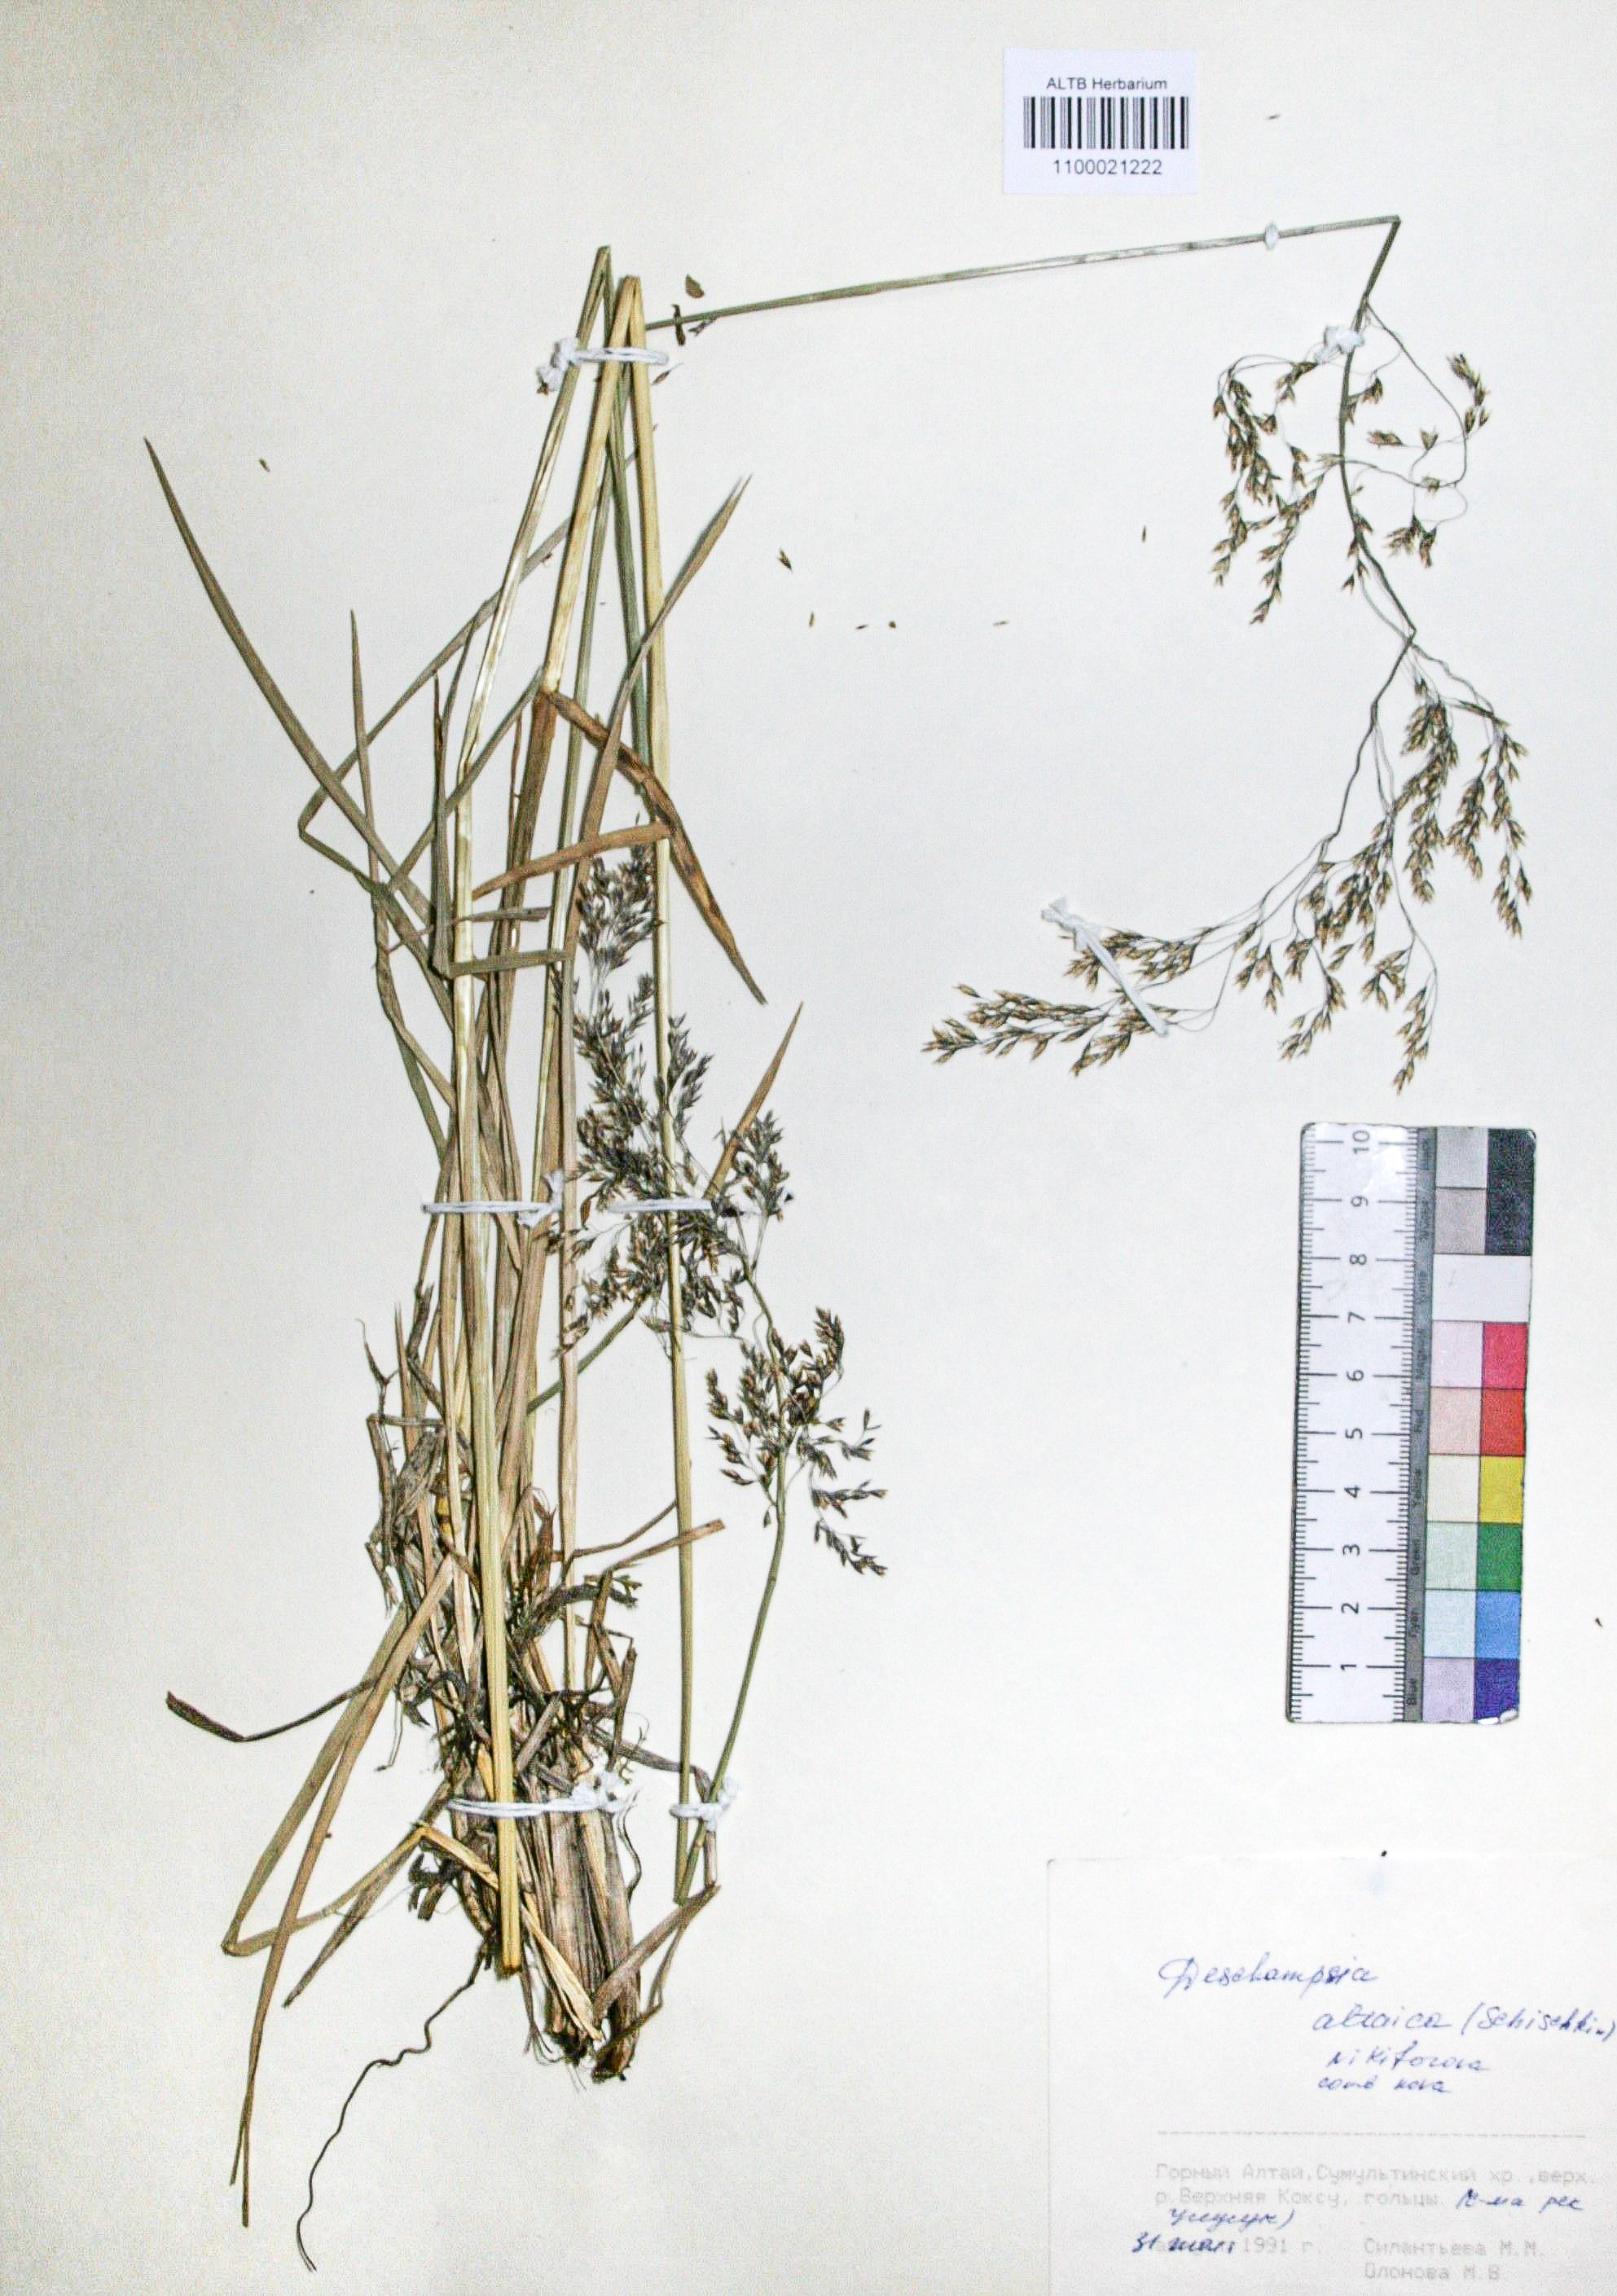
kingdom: Plantae
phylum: Tracheophyta
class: Liliopsida
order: Poales
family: Poaceae
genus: Deschampsia
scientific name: Deschampsia cespitosa
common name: Tufted hair-grass
